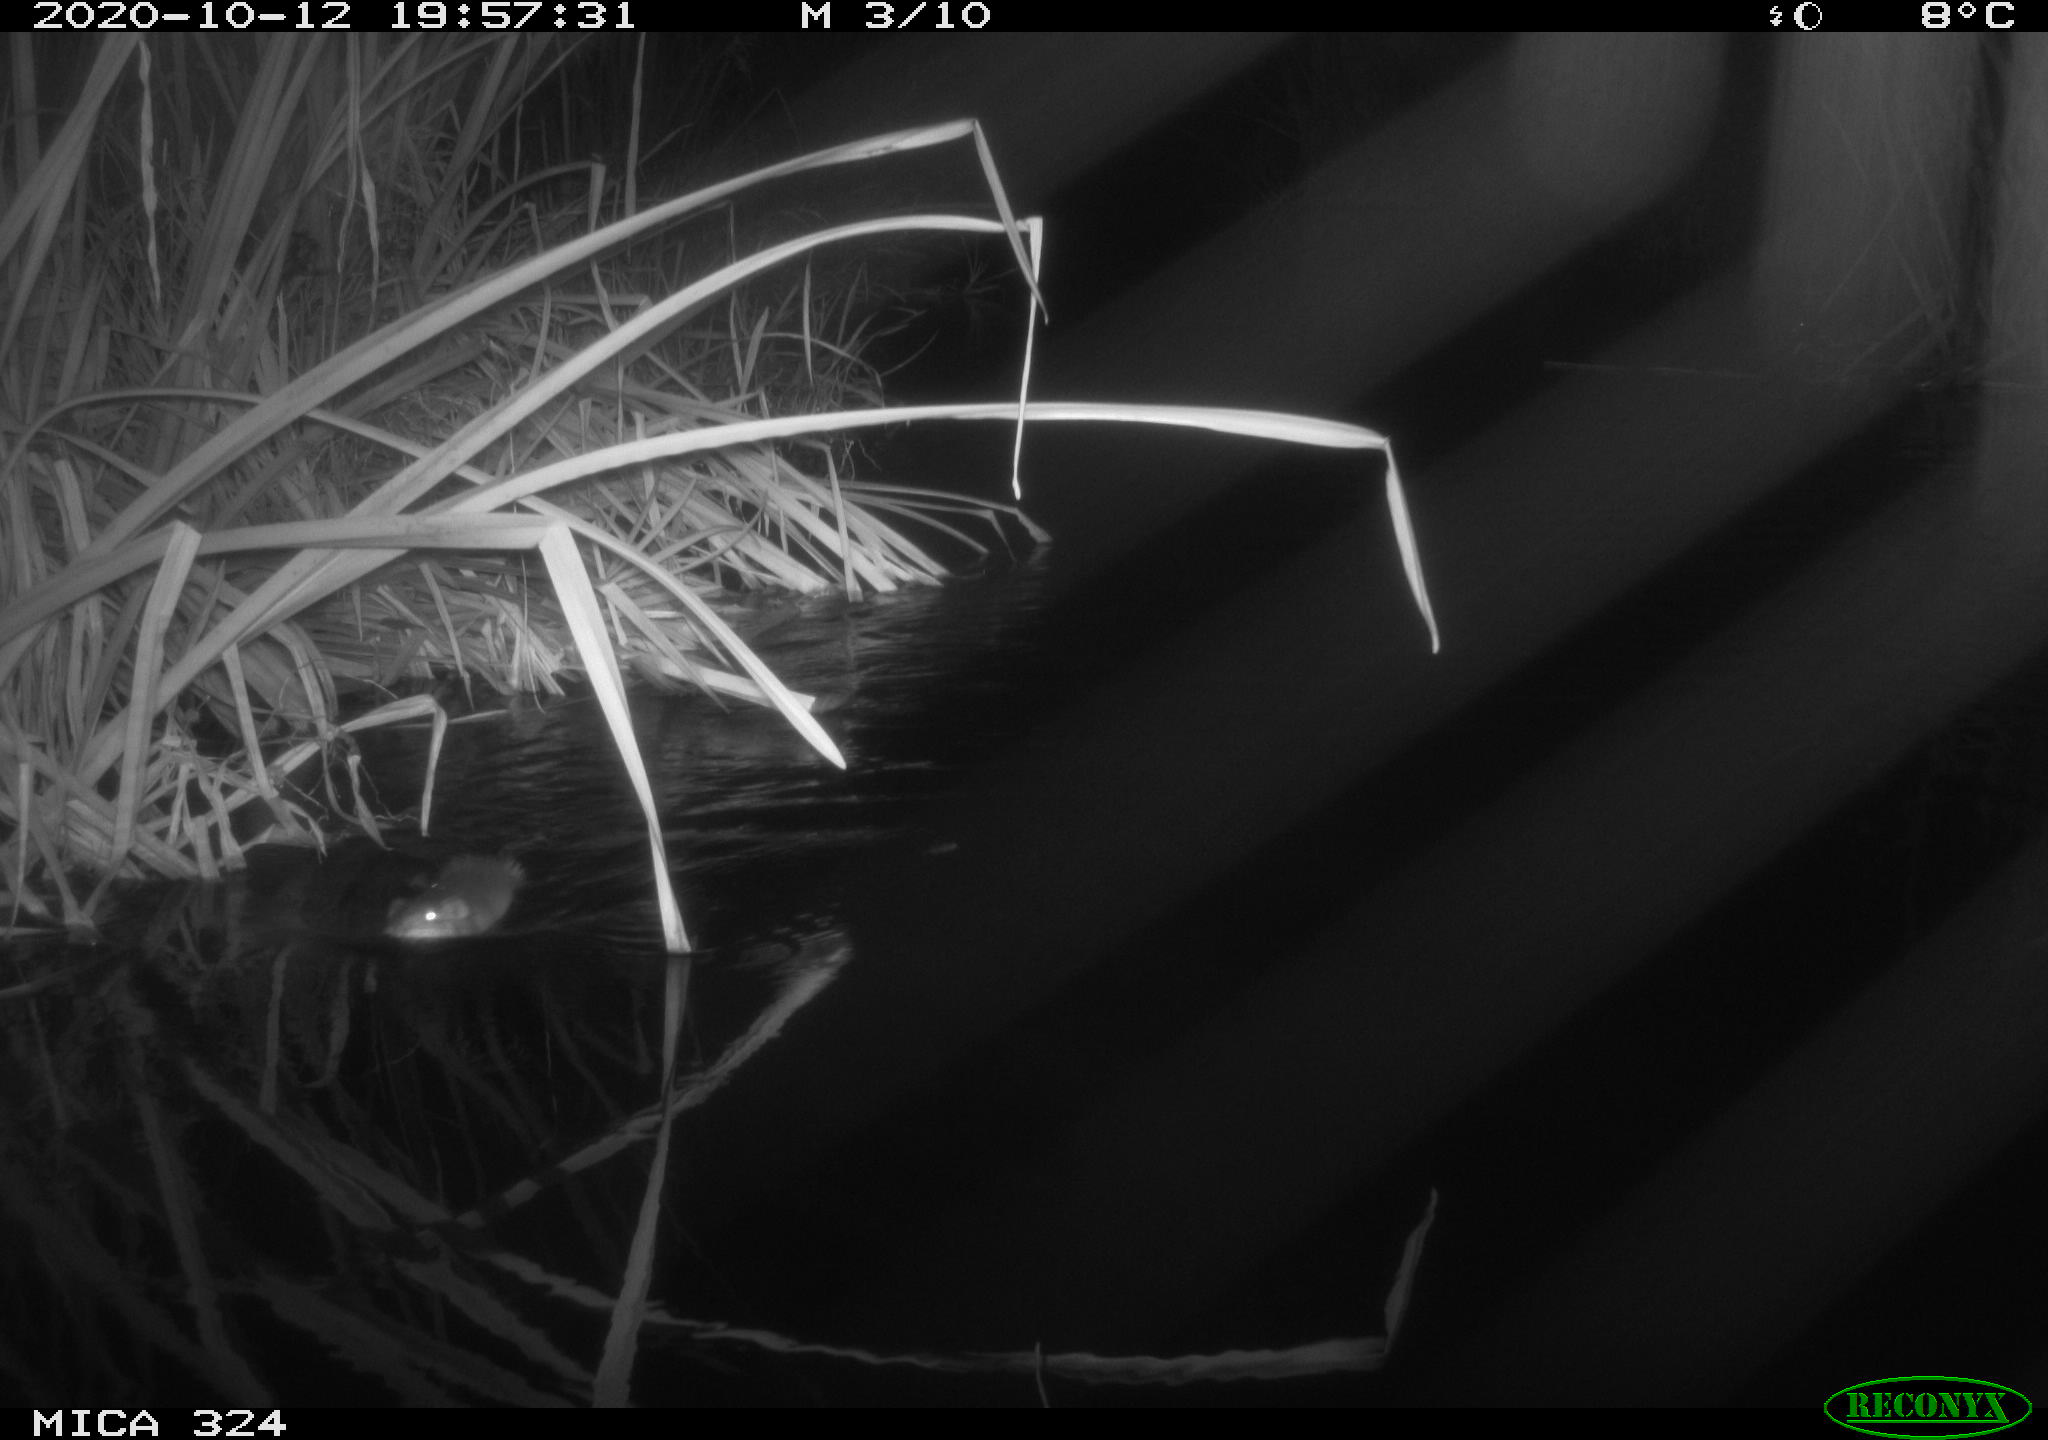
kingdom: Animalia
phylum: Chordata
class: Mammalia
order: Rodentia
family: Cricetidae
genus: Ondatra
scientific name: Ondatra zibethicus
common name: Muskrat
